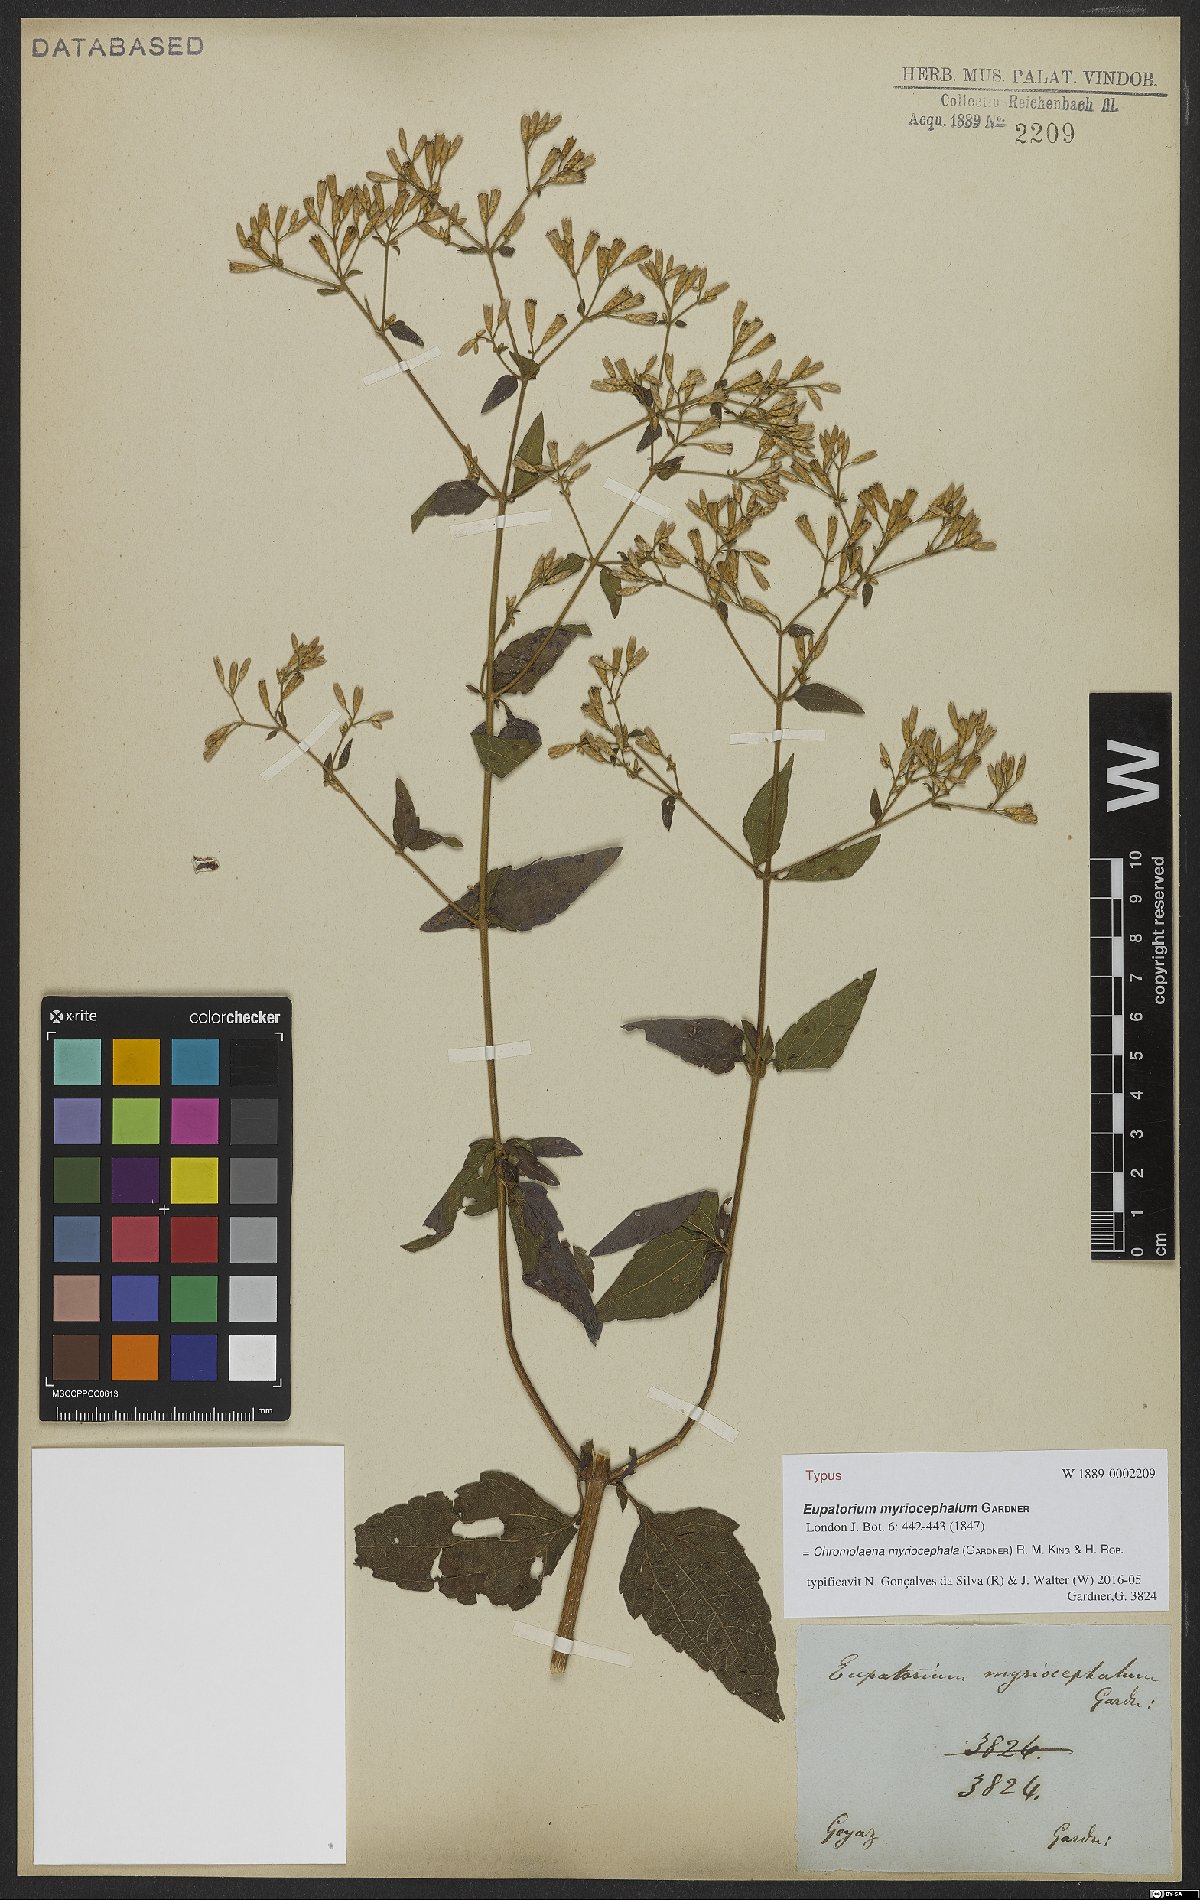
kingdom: Plantae
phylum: Tracheophyta
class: Magnoliopsida
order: Asterales
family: Asteraceae
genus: Chromolaena
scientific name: Chromolaena myriocephala
